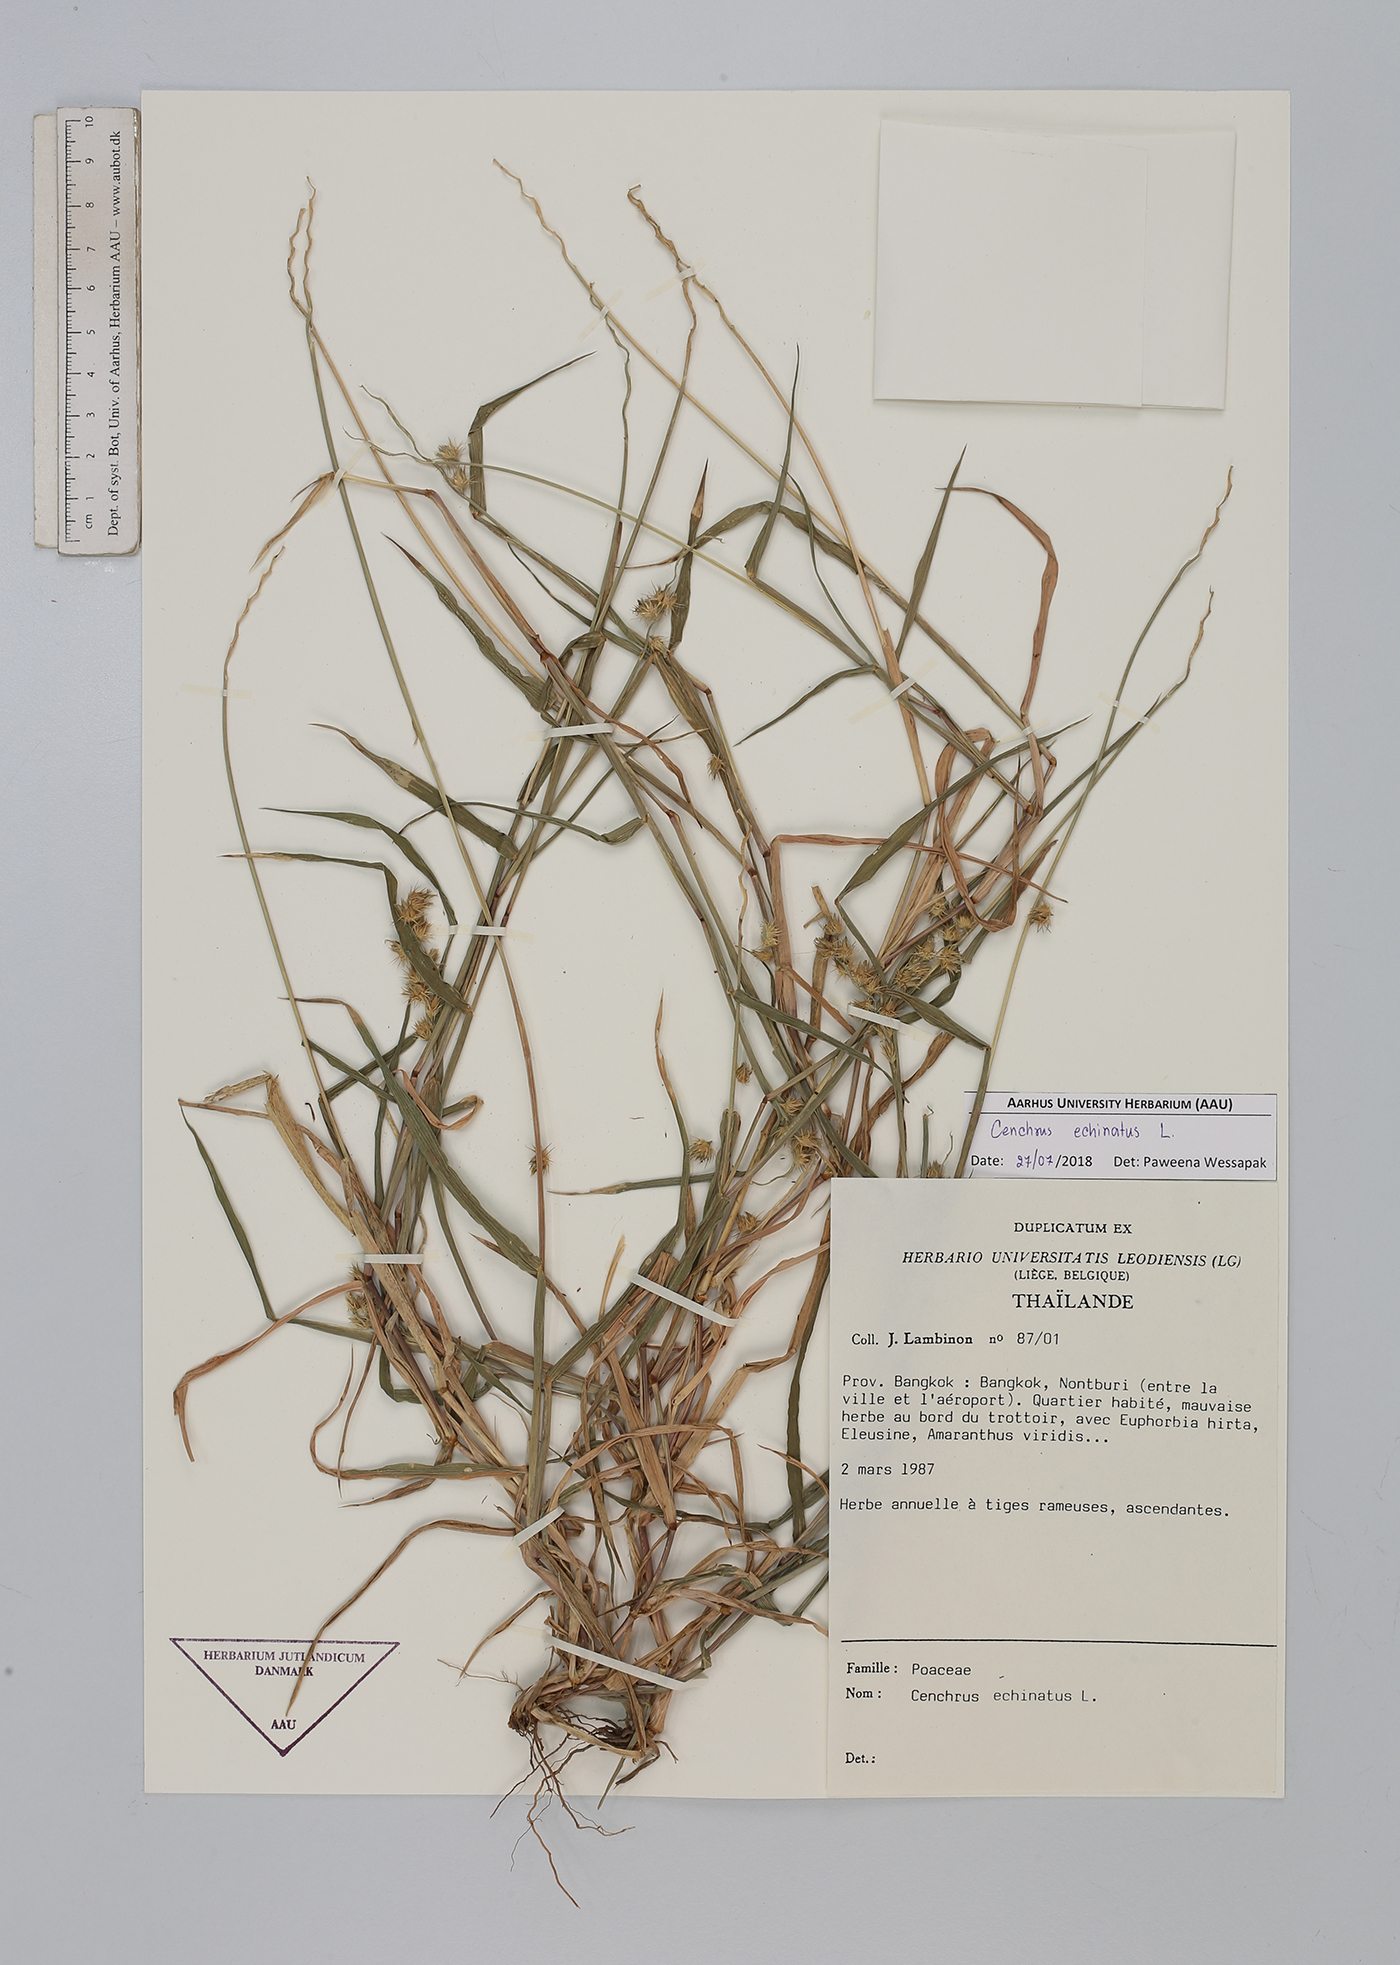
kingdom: Plantae
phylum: Tracheophyta
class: Liliopsida
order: Poales
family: Poaceae
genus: Cenchrus
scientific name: Cenchrus echinatus
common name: Southern sandbur
